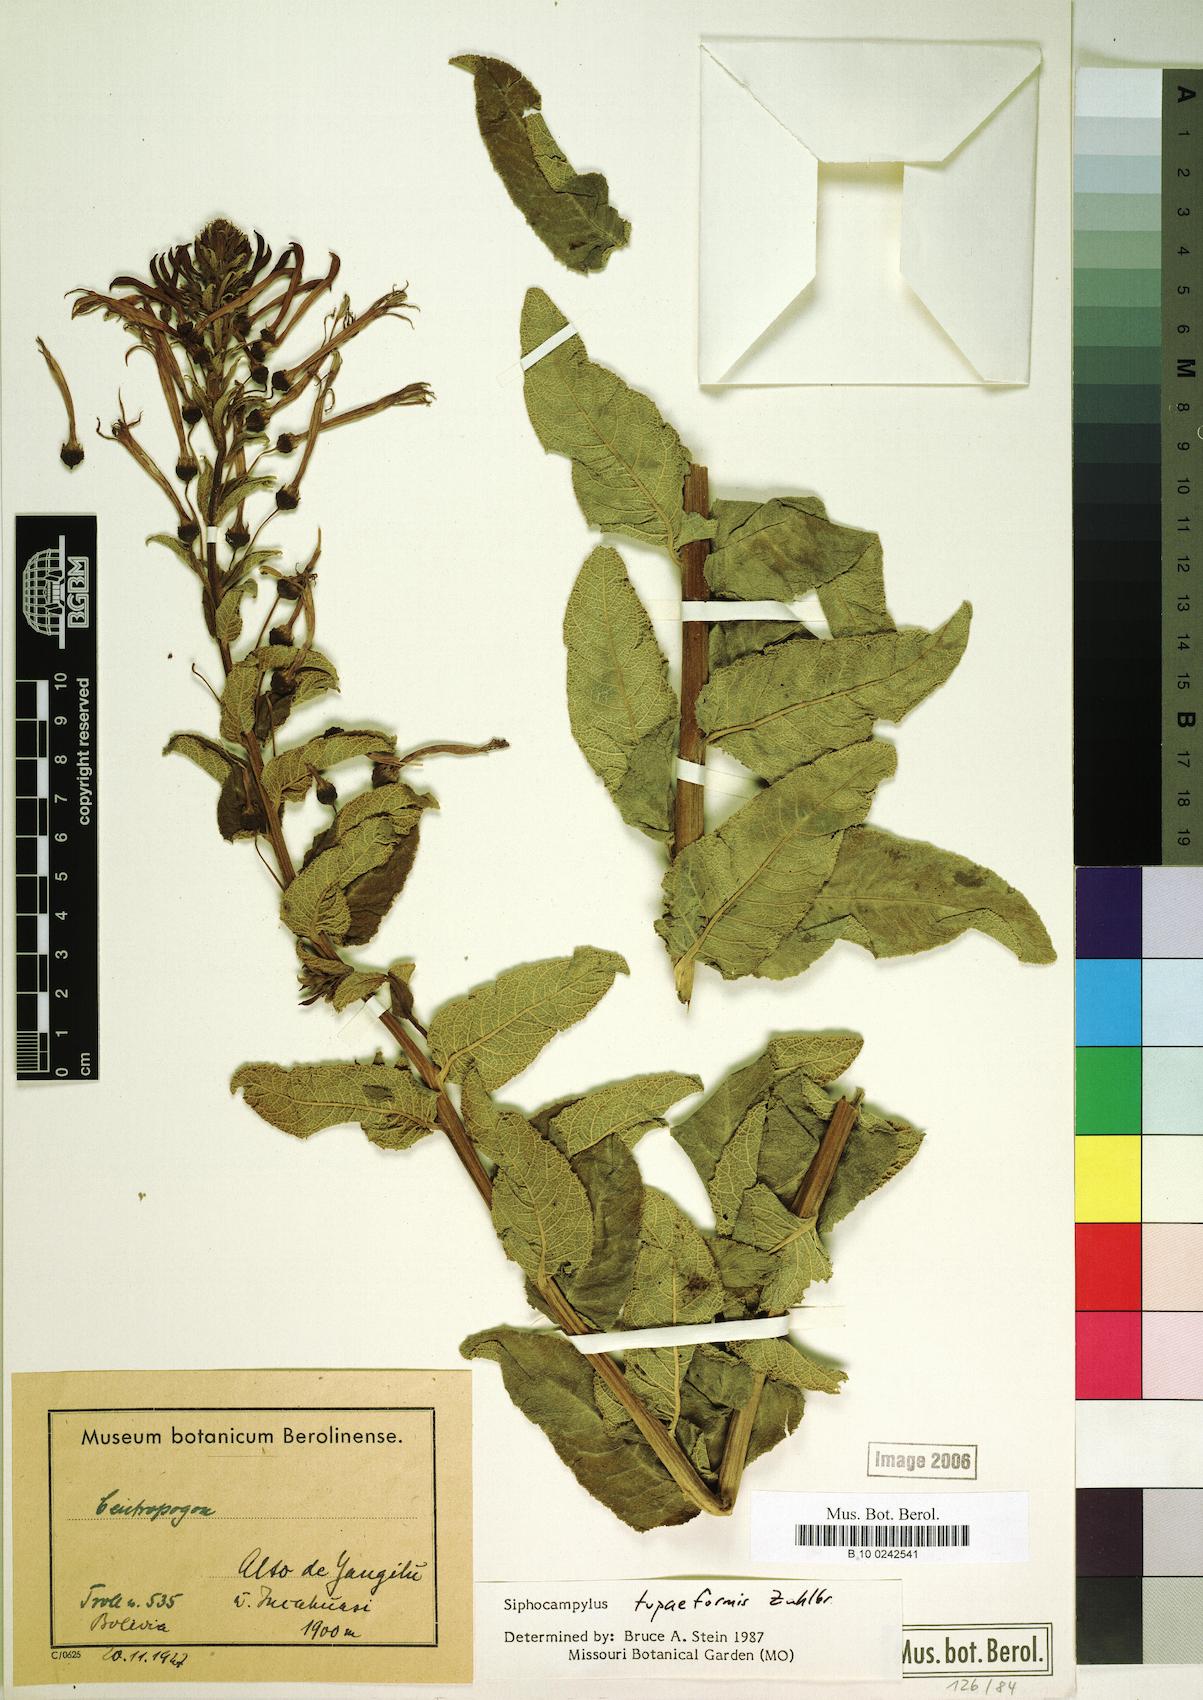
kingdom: Plantae
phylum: Tracheophyta
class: Magnoliopsida
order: Asterales
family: Campanulaceae
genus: Siphocampylus
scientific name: Siphocampylus tupaeformis
